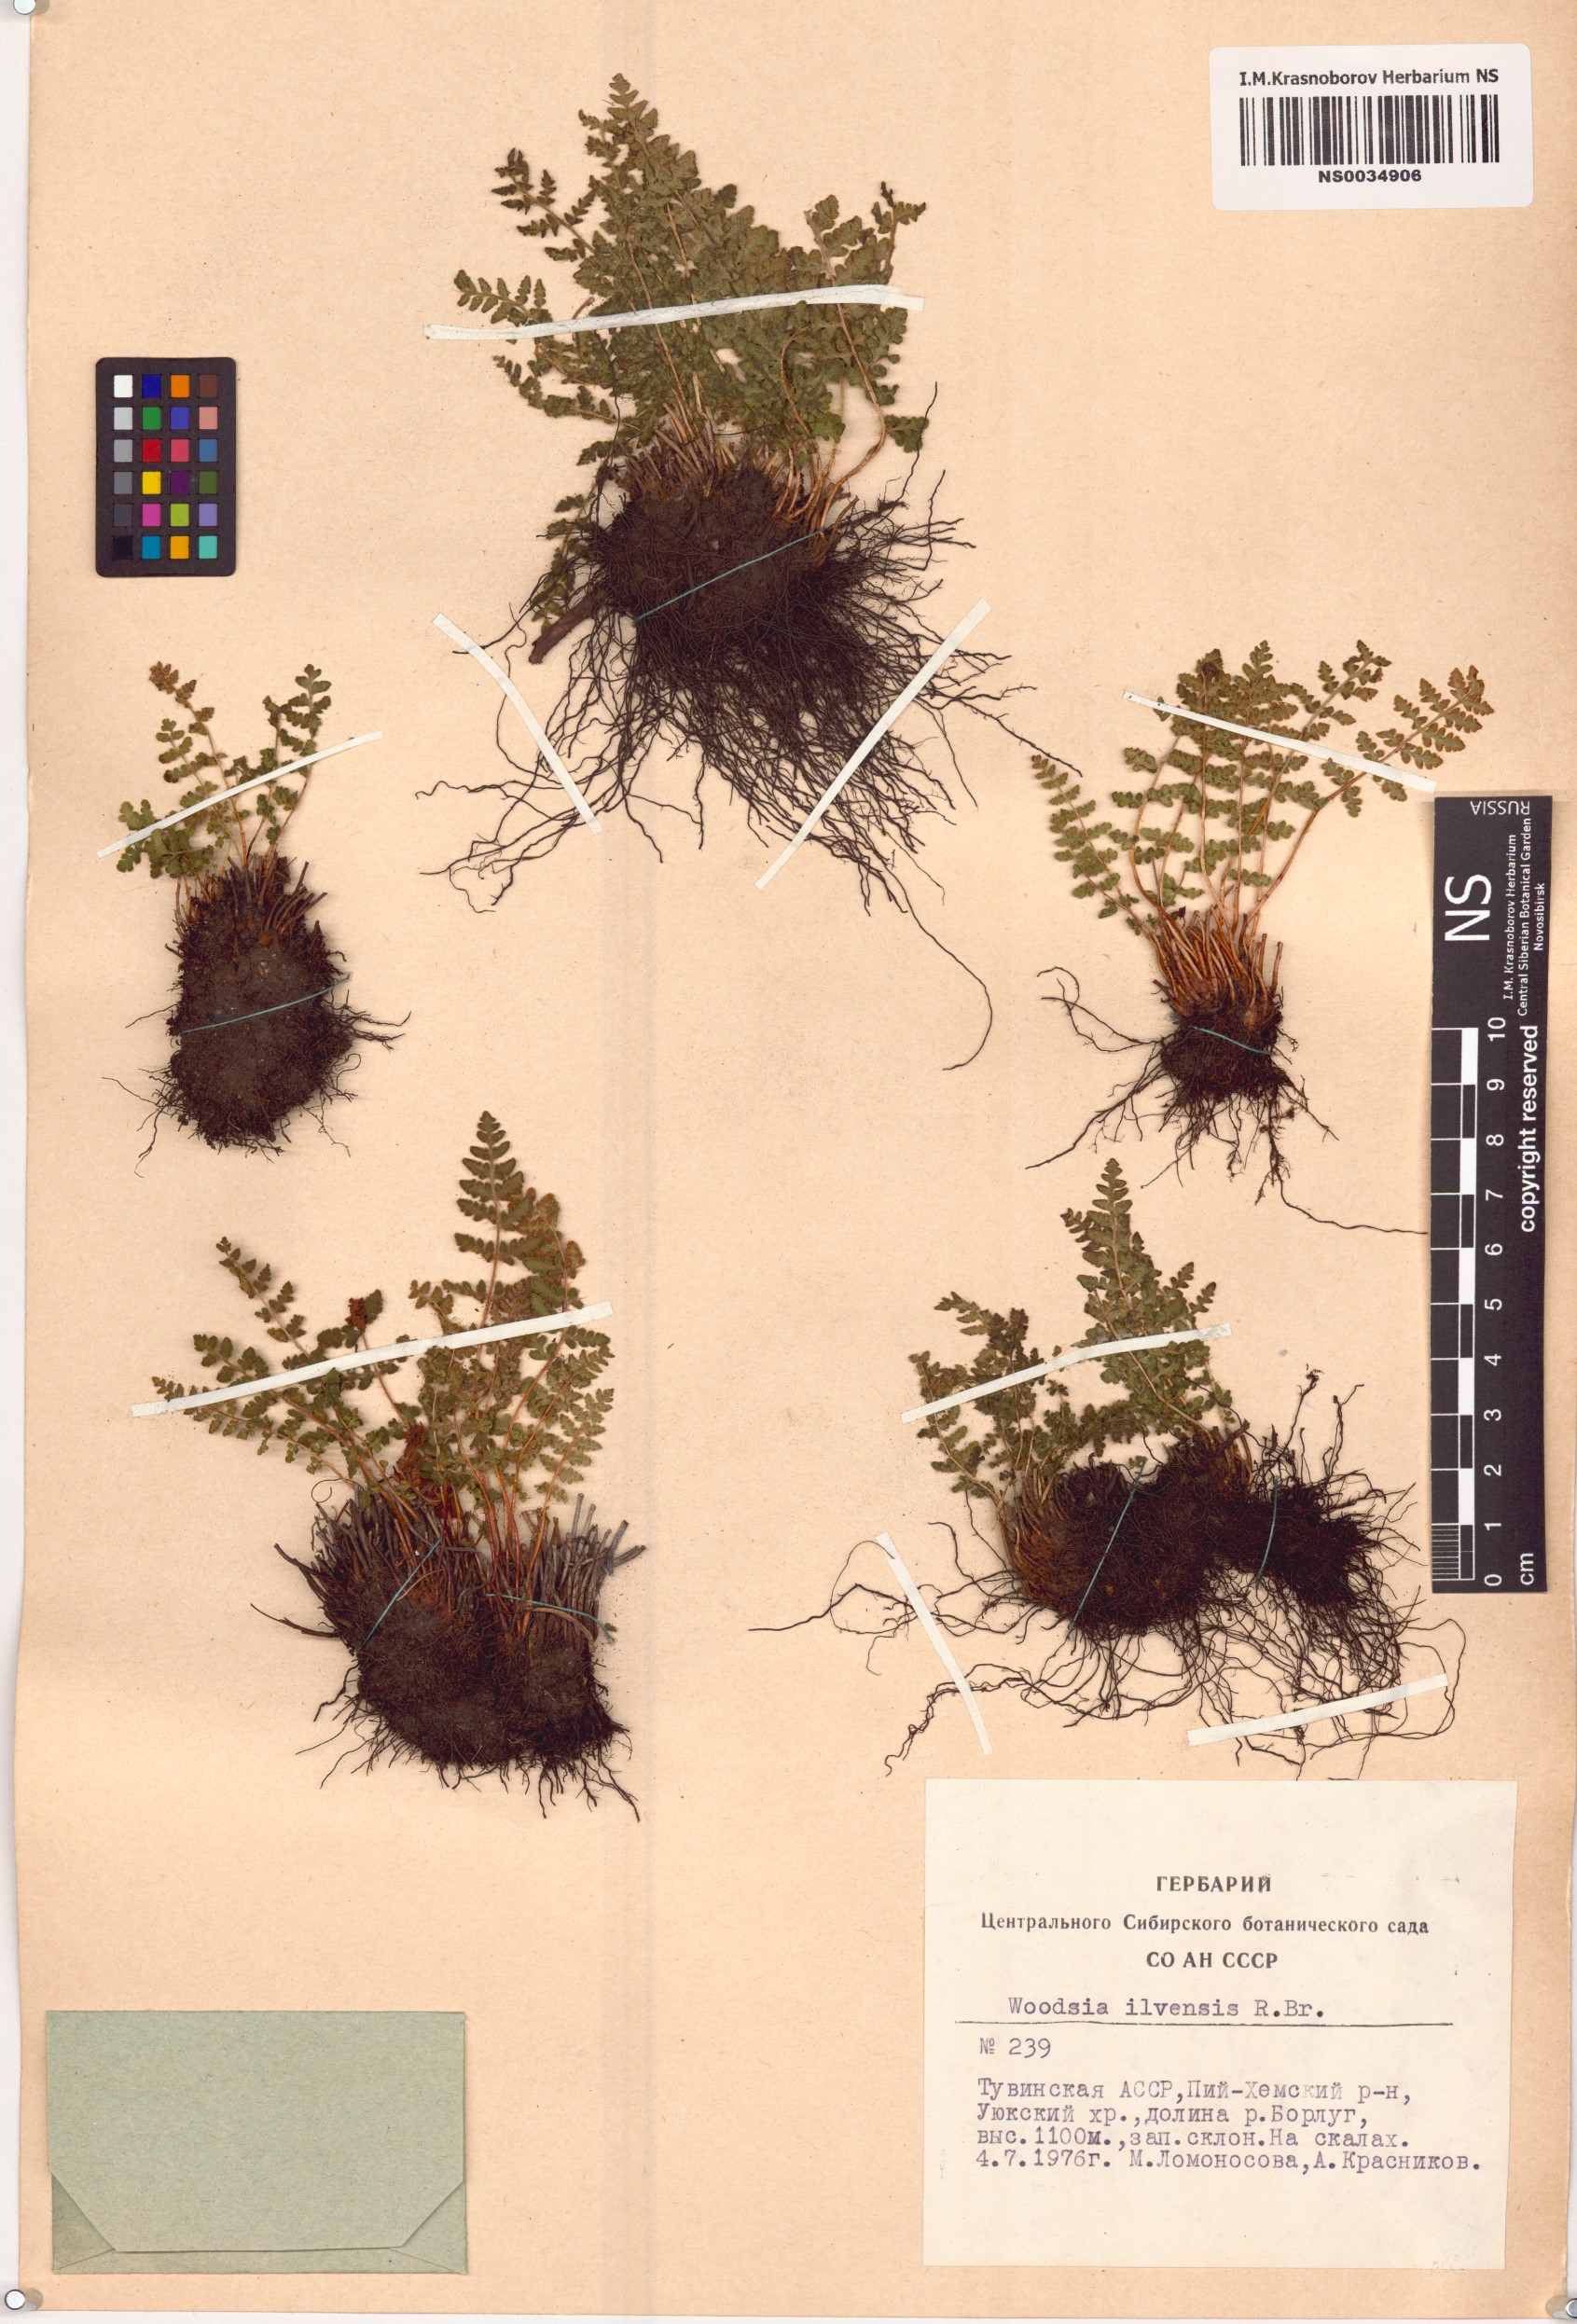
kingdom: Plantae
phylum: Tracheophyta
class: Polypodiopsida
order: Polypodiales
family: Woodsiaceae
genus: Woodsia
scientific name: Woodsia ilvensis
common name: Fragrant woodsia
